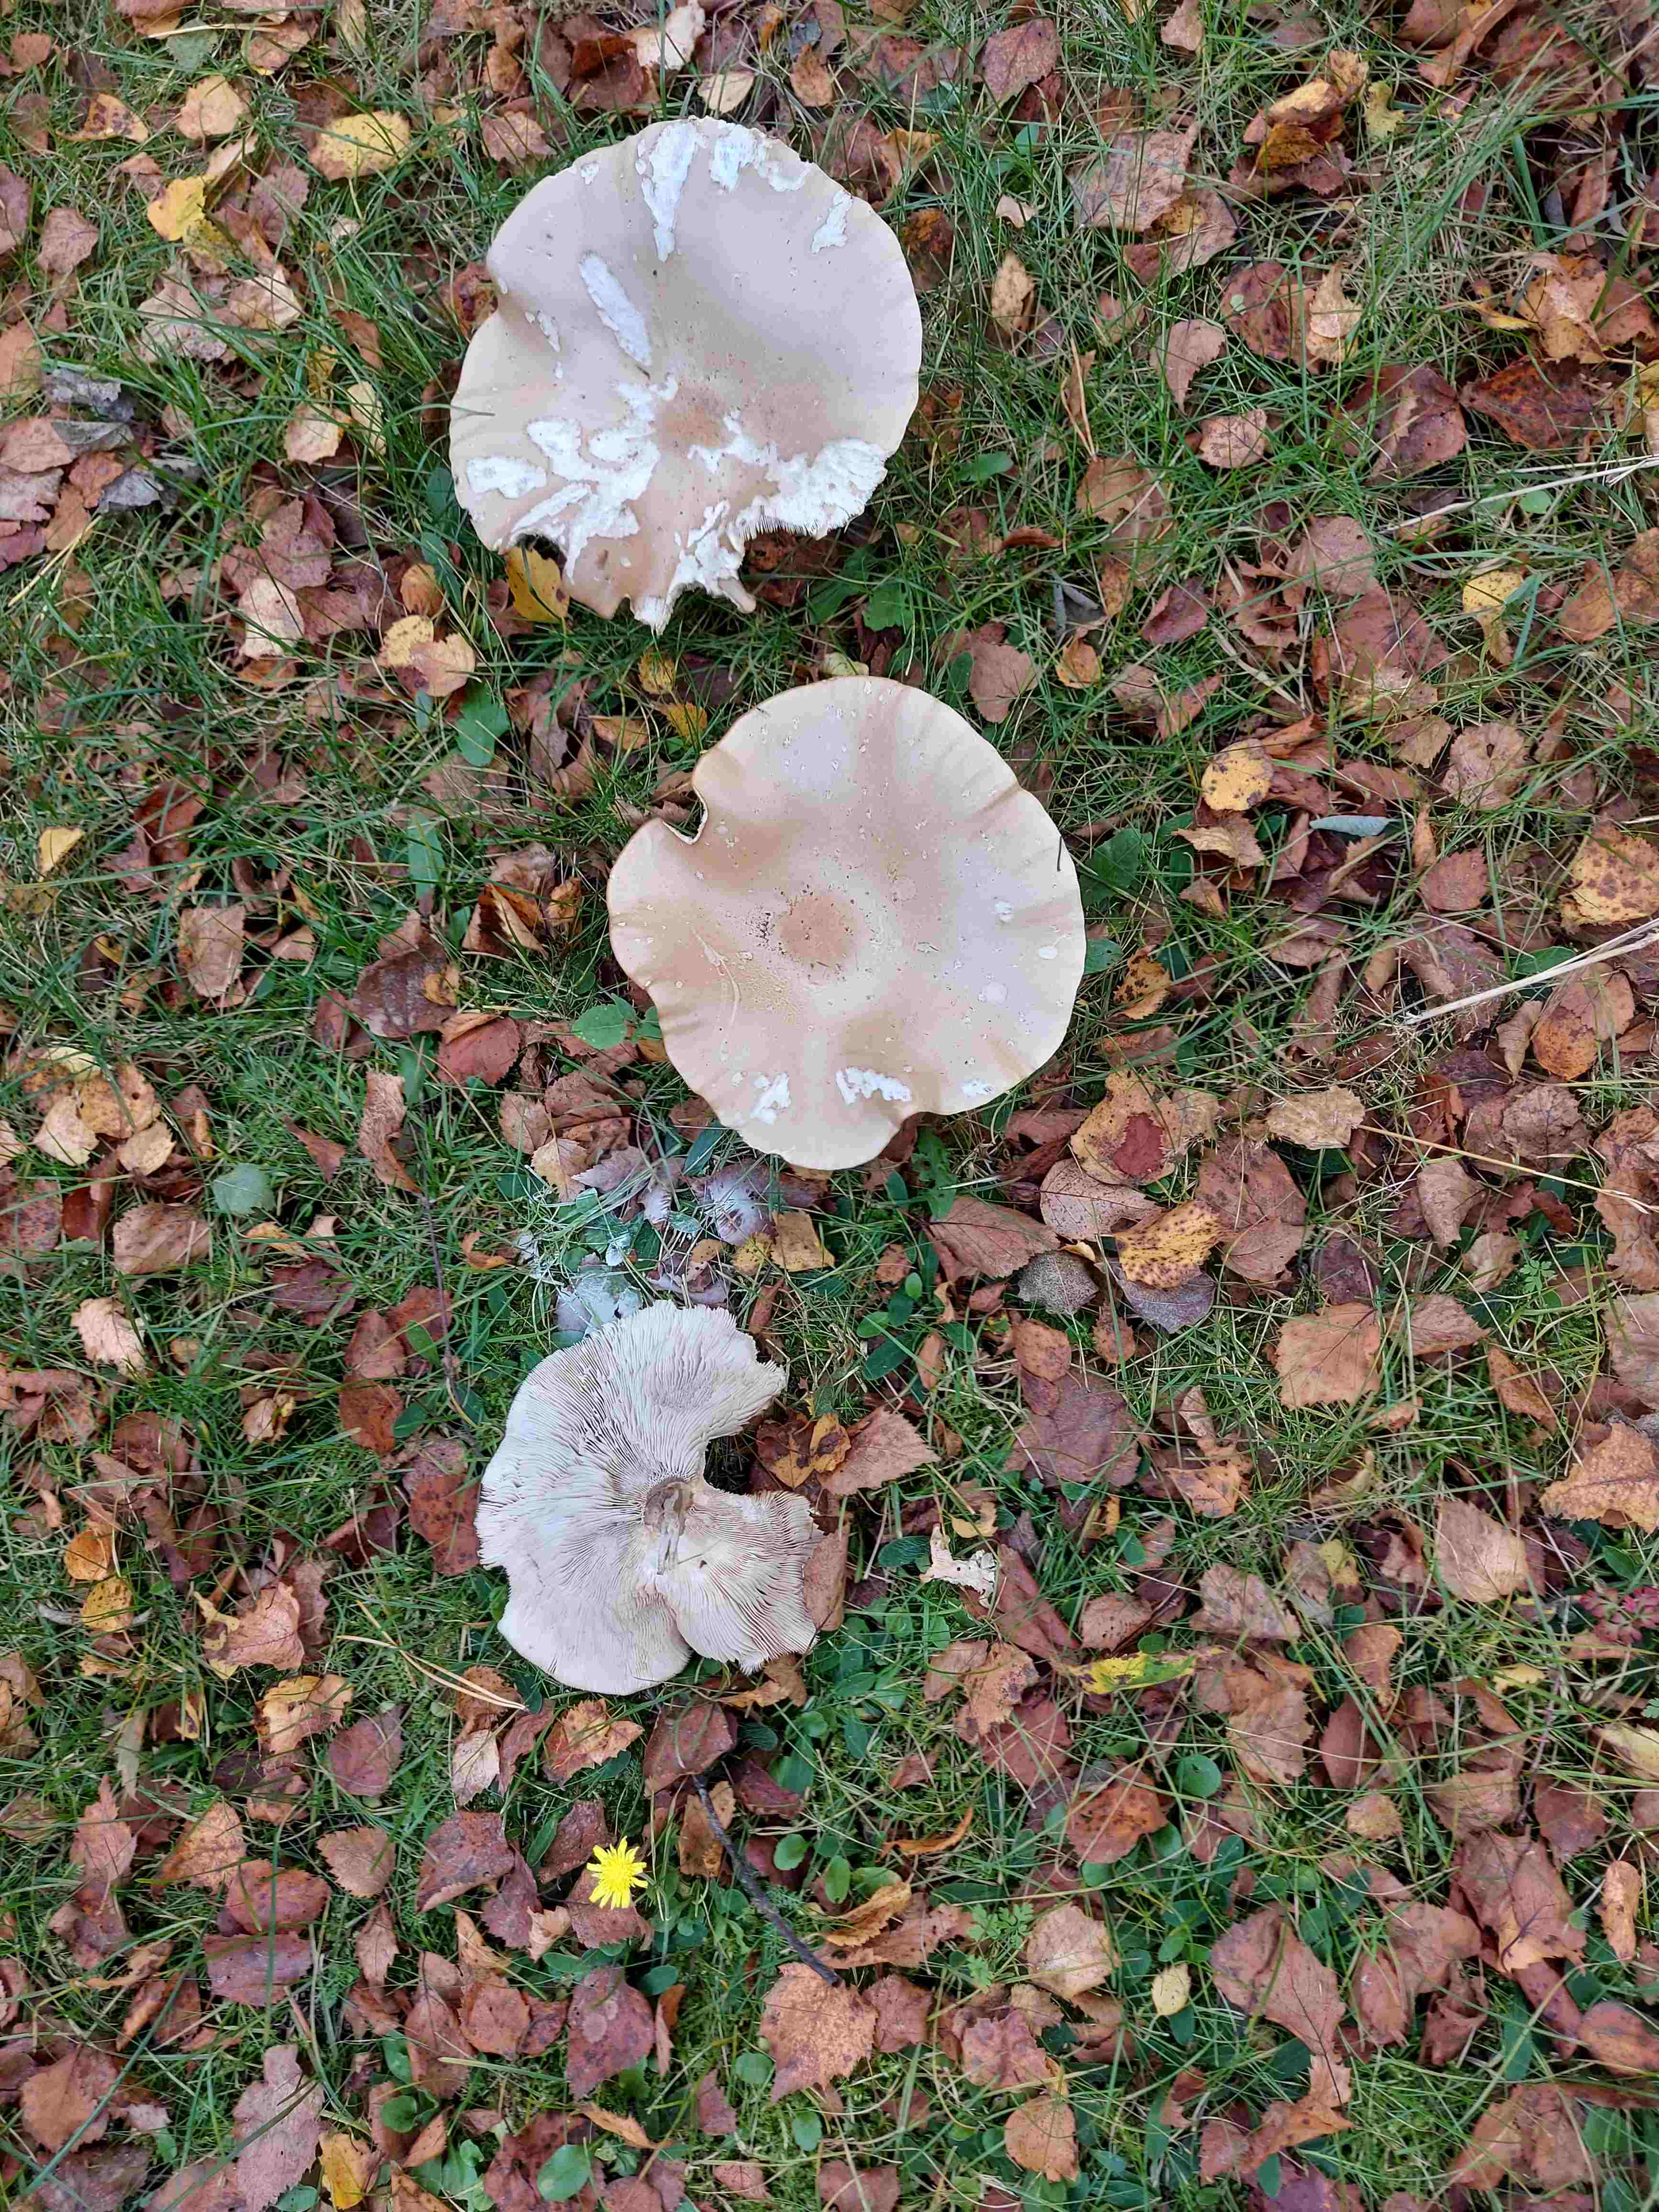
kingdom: Fungi
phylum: Basidiomycota
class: Agaricomycetes
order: Agaricales
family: Tricholomataceae
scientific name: Tricholomataceae
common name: ridderhatfamilien
